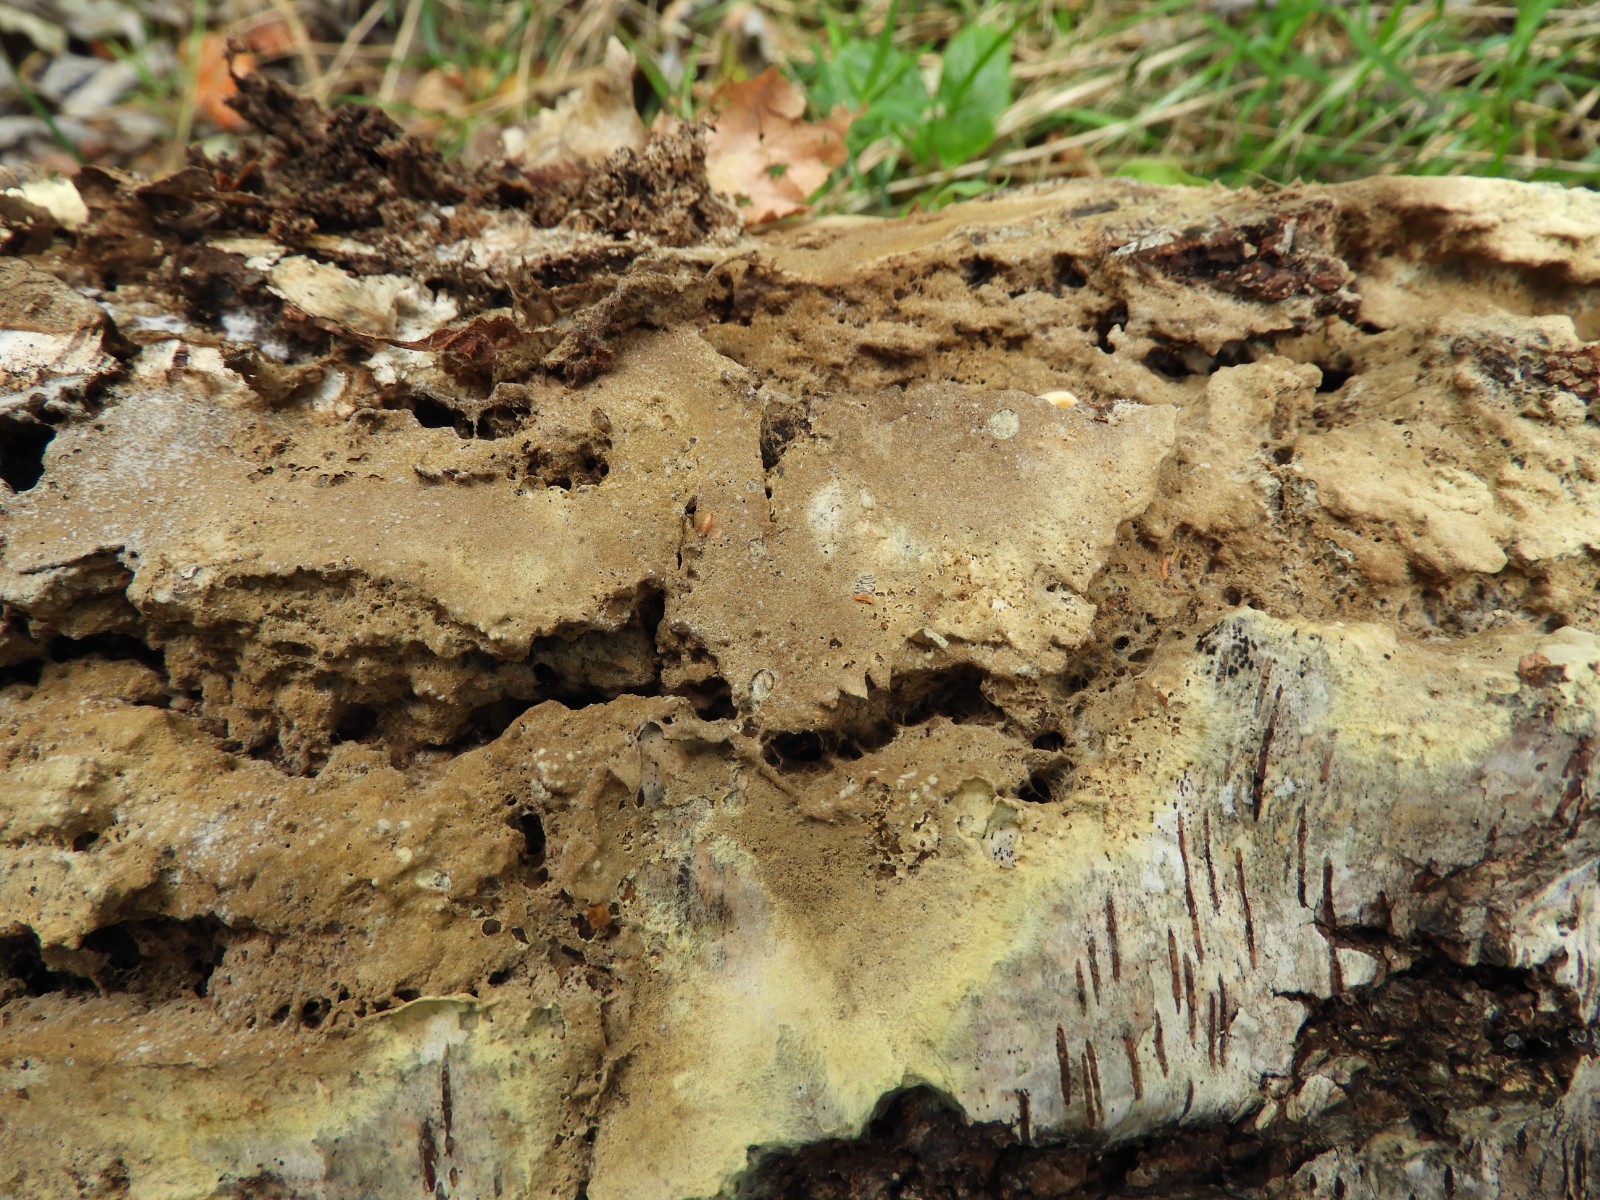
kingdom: Fungi
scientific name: Fungi
